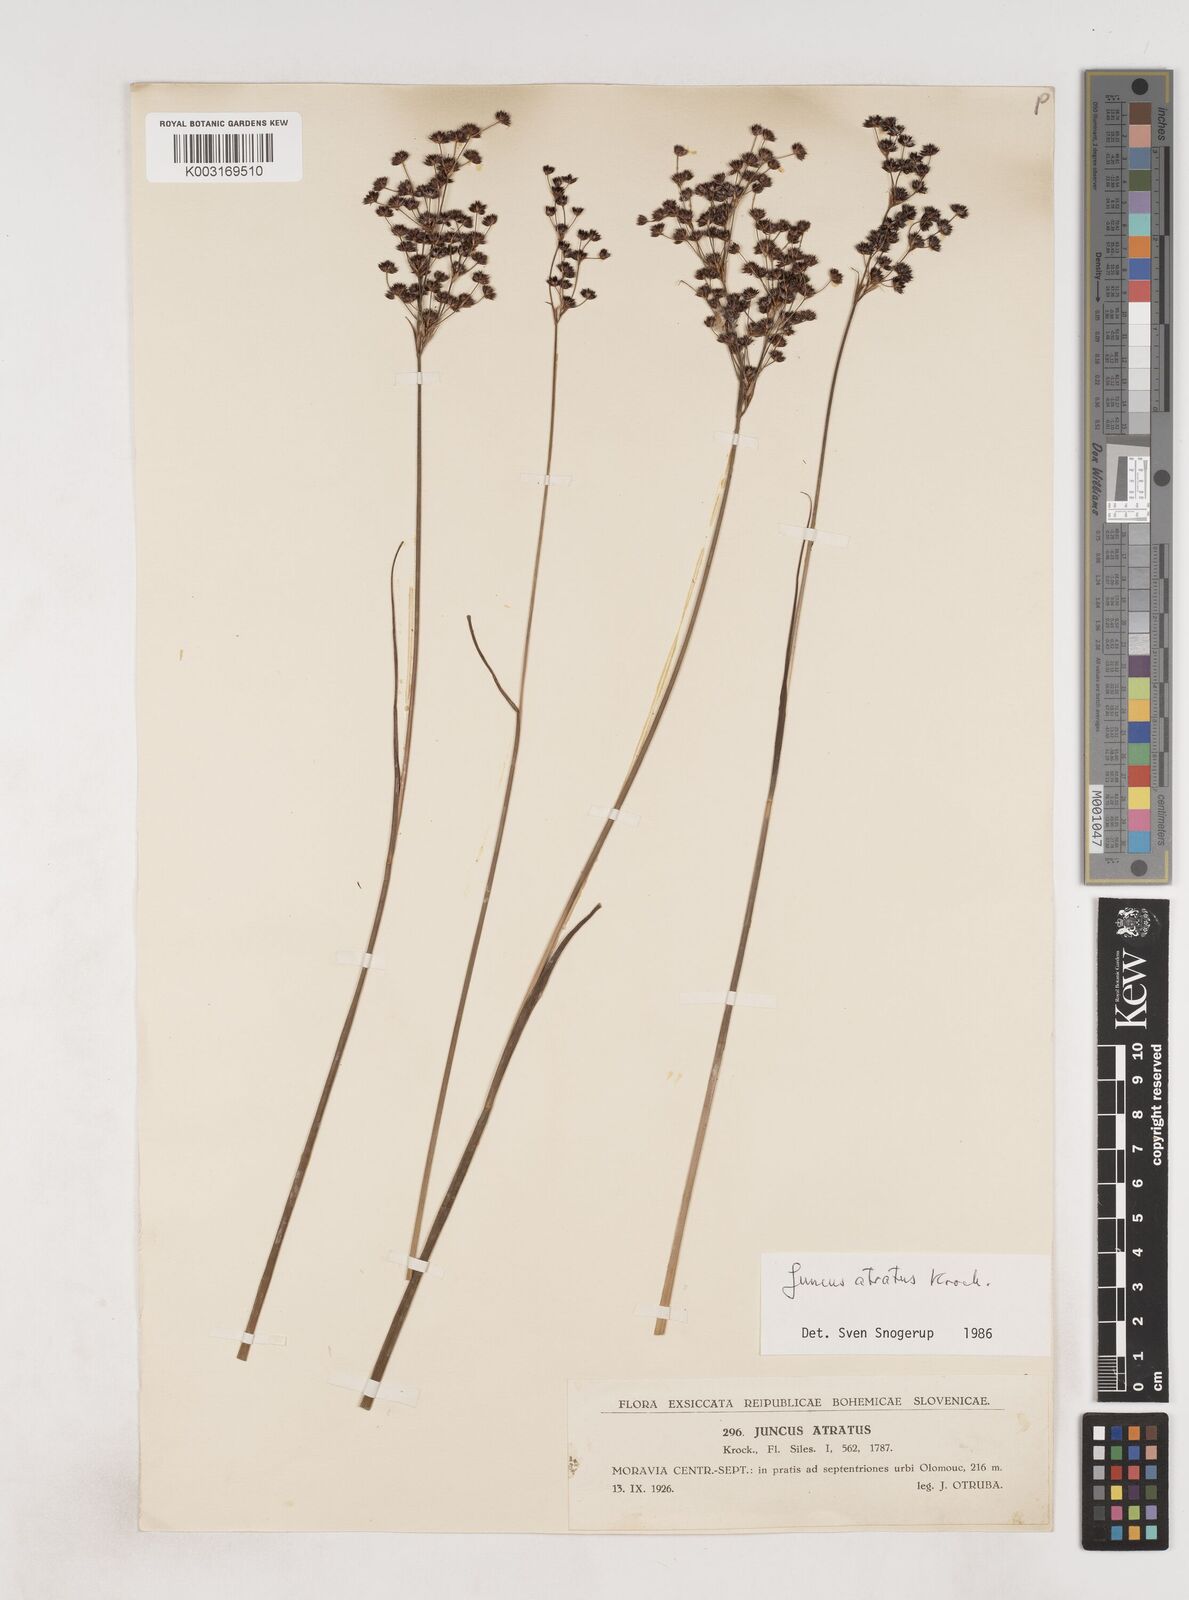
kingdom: Plantae
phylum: Tracheophyta
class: Liliopsida
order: Poales
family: Juncaceae
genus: Juncus
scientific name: Juncus atratus
